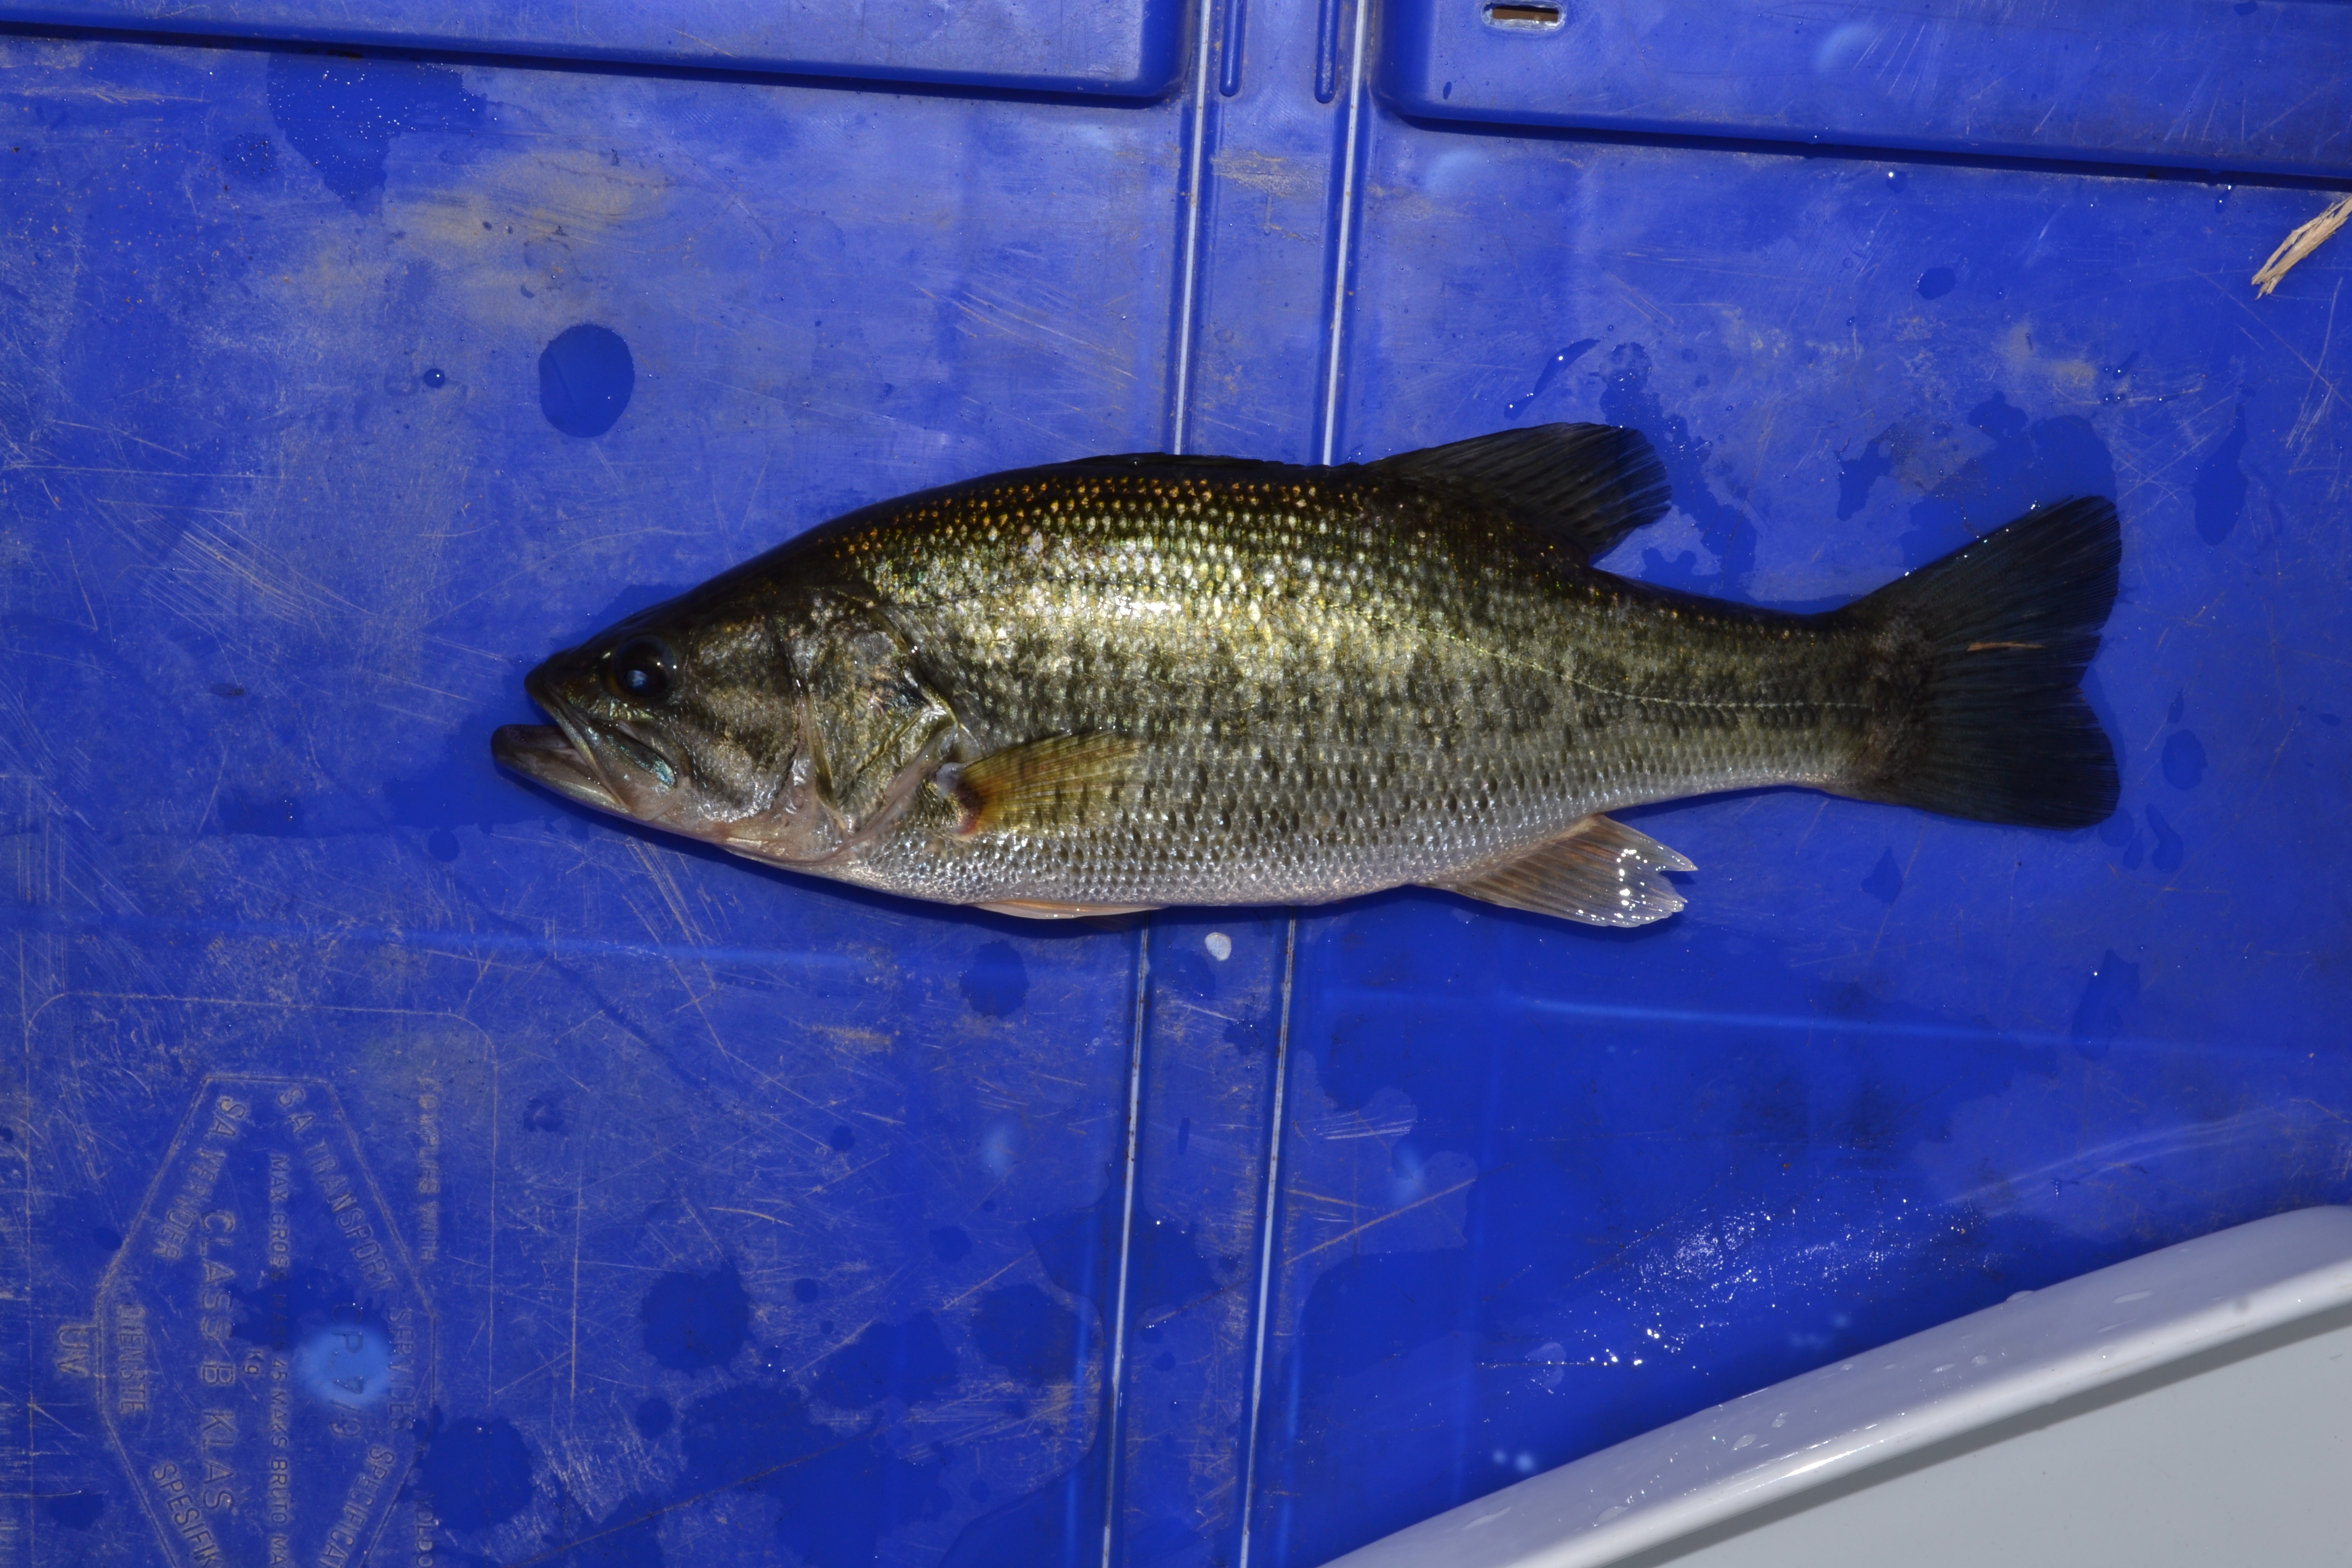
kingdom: Animalia
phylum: Chordata
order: Perciformes
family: Centrarchidae
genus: Micropterus
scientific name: Micropterus salmoides
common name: Largemouth bass
